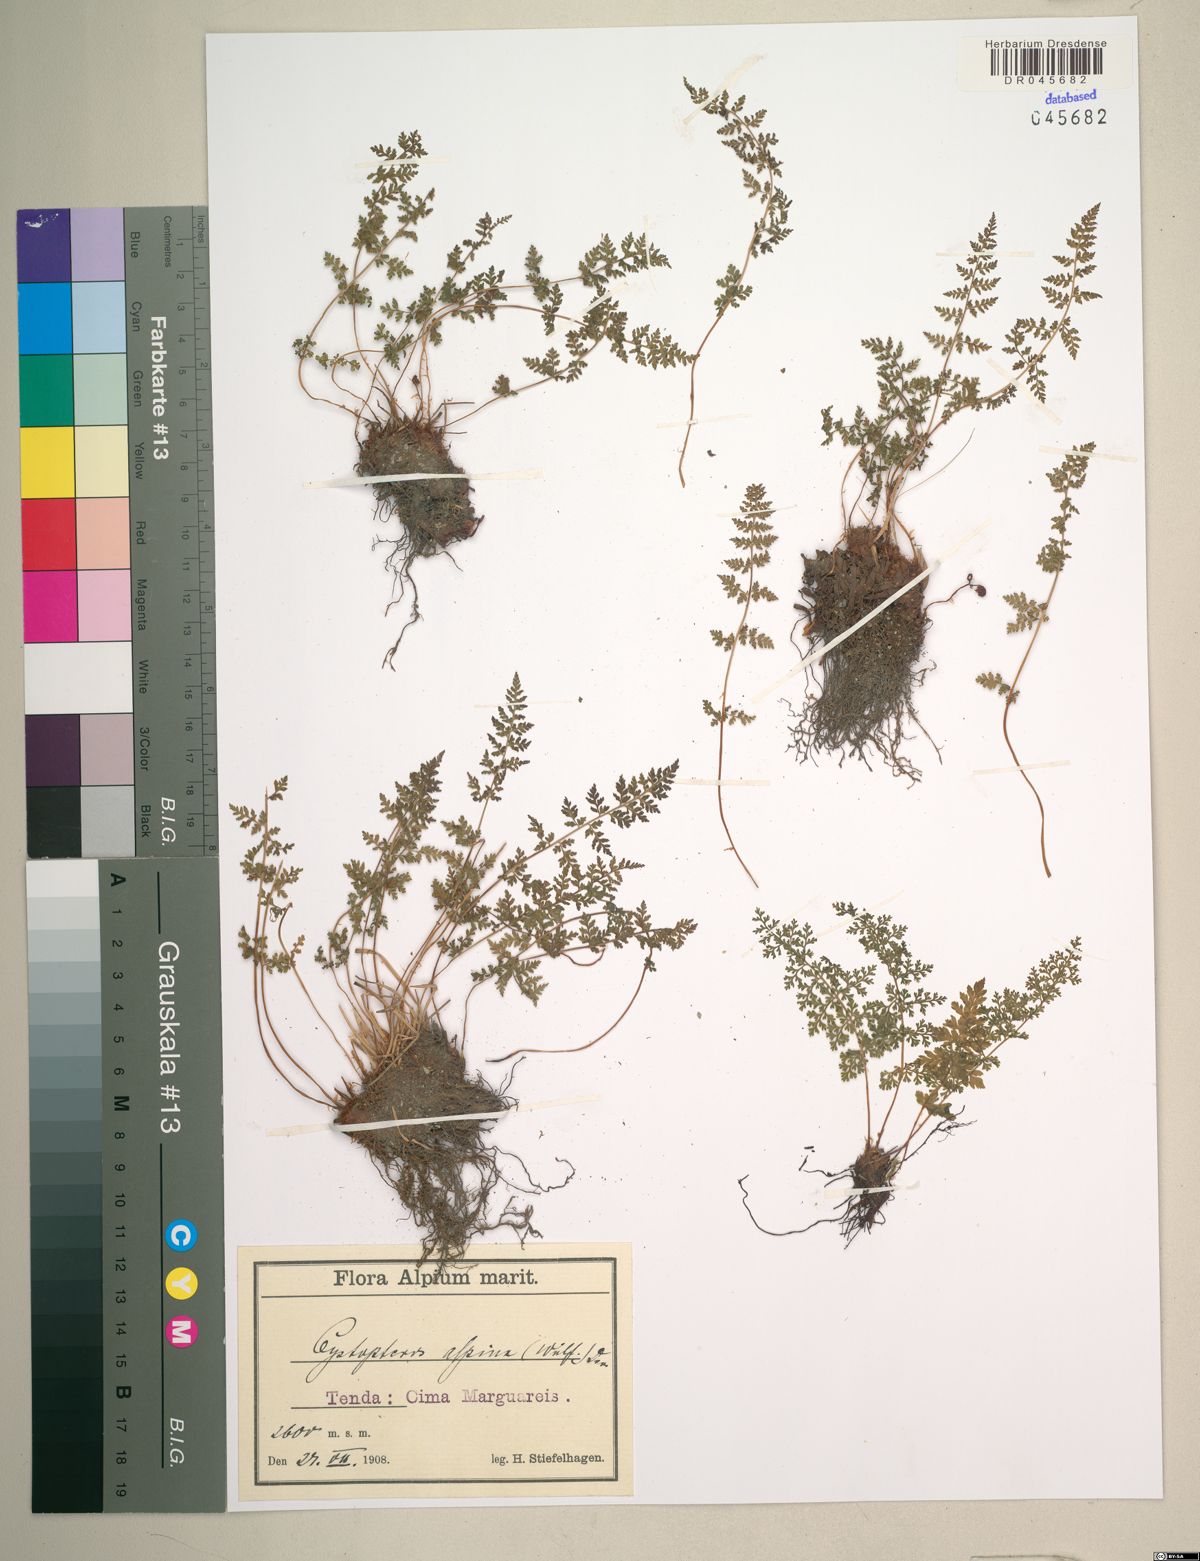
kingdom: Plantae
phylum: Tracheophyta
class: Polypodiopsida
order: Polypodiales
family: Cystopteridaceae
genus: Cystopteris
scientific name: Cystopteris alpina
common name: Alpine bladder-fern
